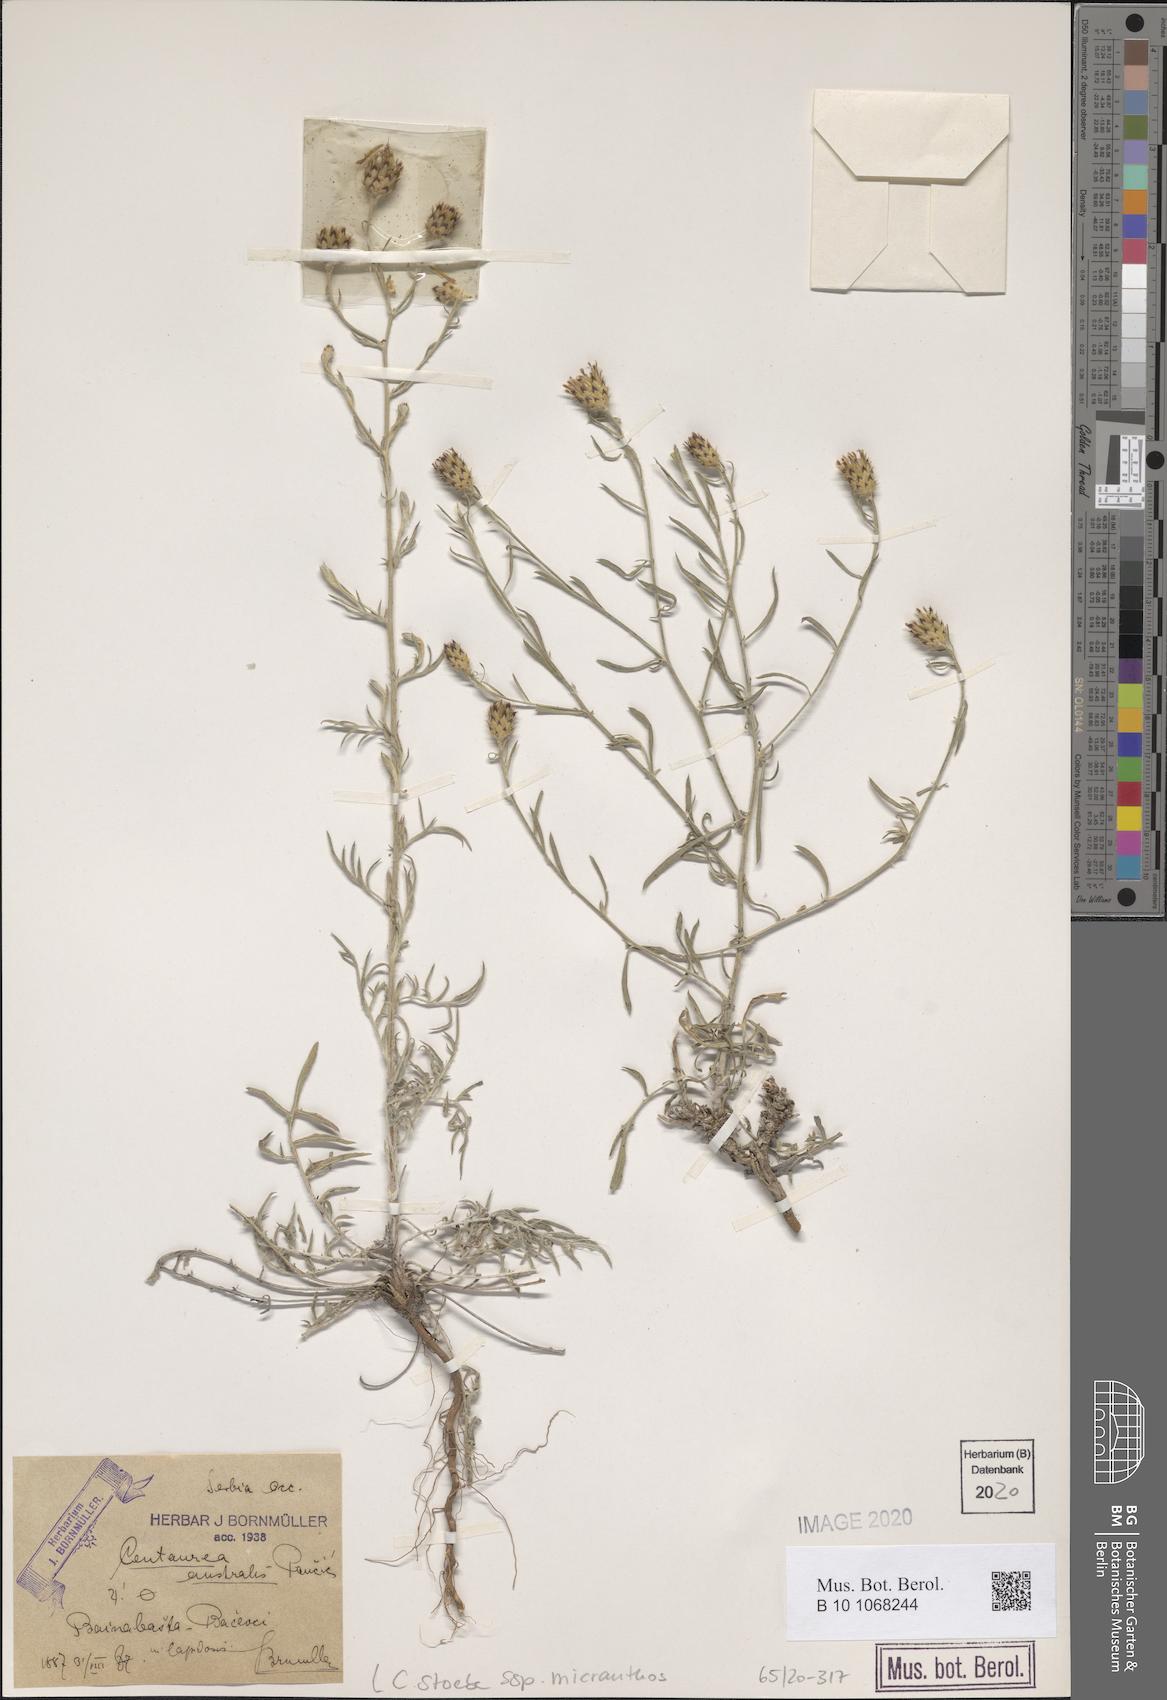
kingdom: Plantae
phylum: Tracheophyta
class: Magnoliopsida
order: Asterales
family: Asteraceae
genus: Centaurea
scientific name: Centaurea australis
